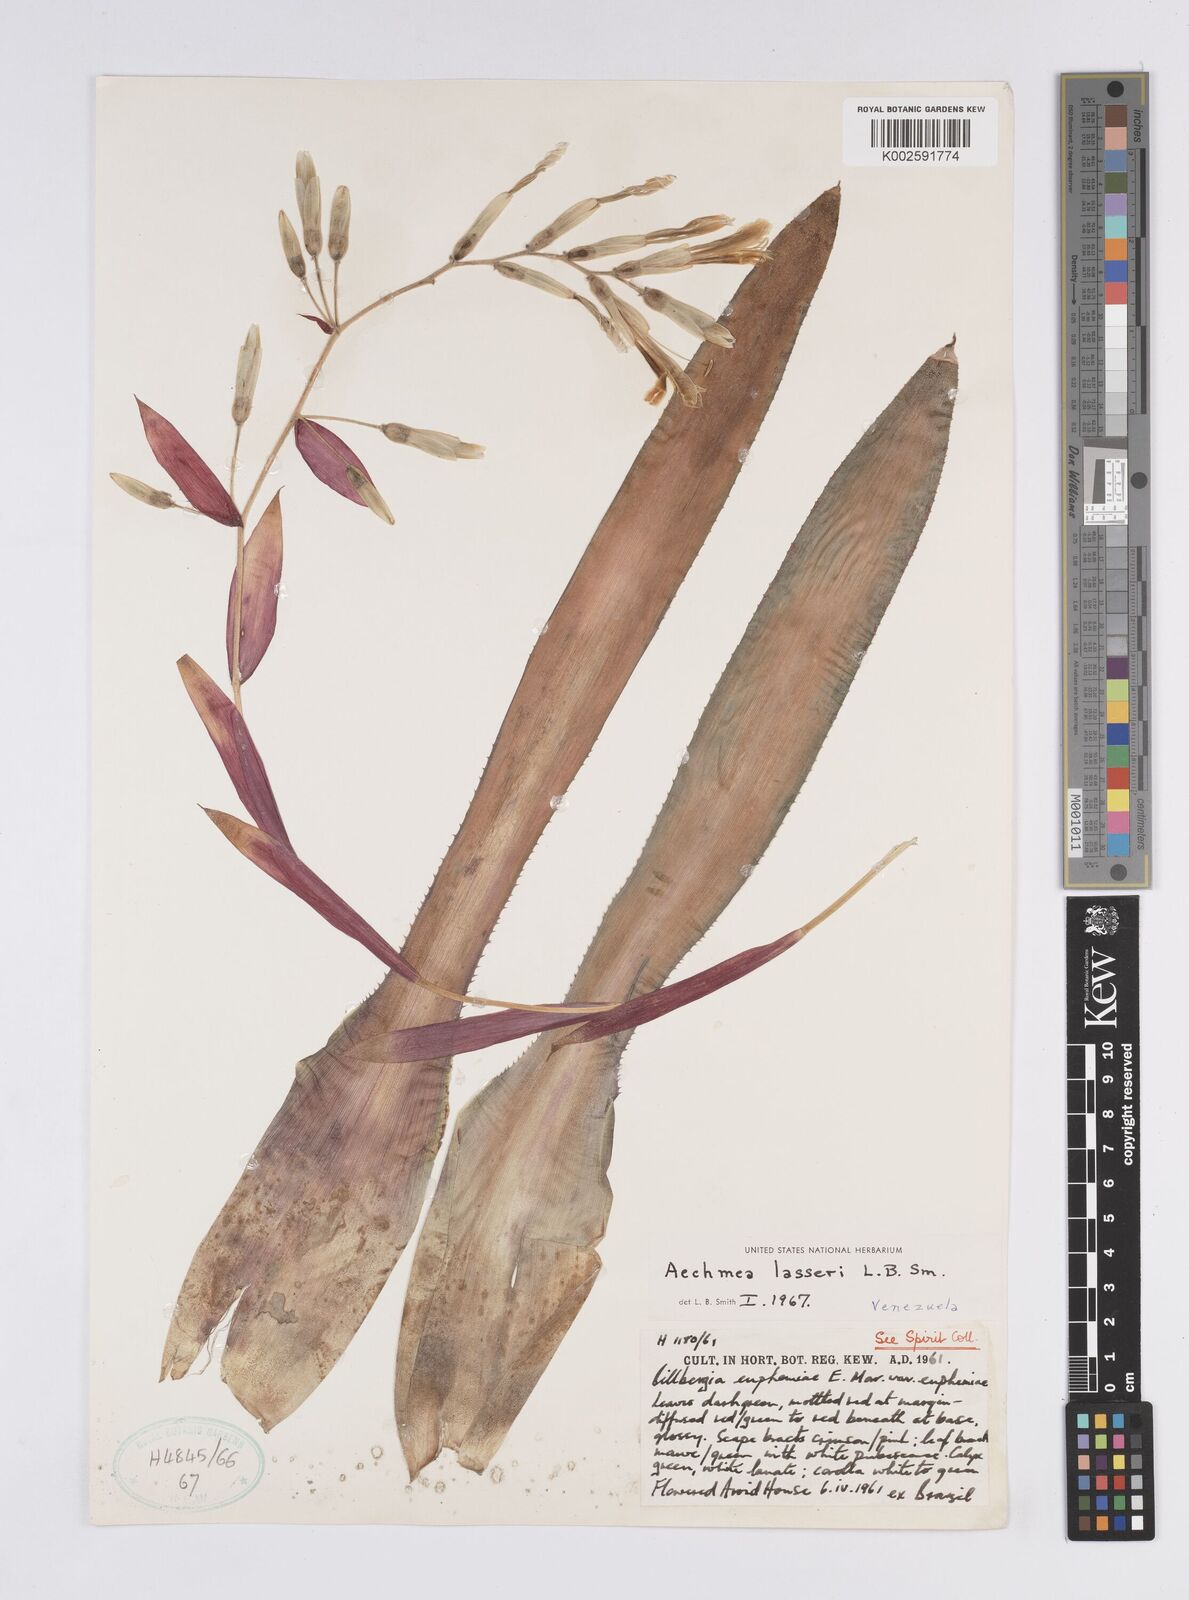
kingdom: Plantae
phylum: Tracheophyta
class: Liliopsida
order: Poales
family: Bromeliaceae
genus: Aechmea
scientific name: Aechmea lasseri
